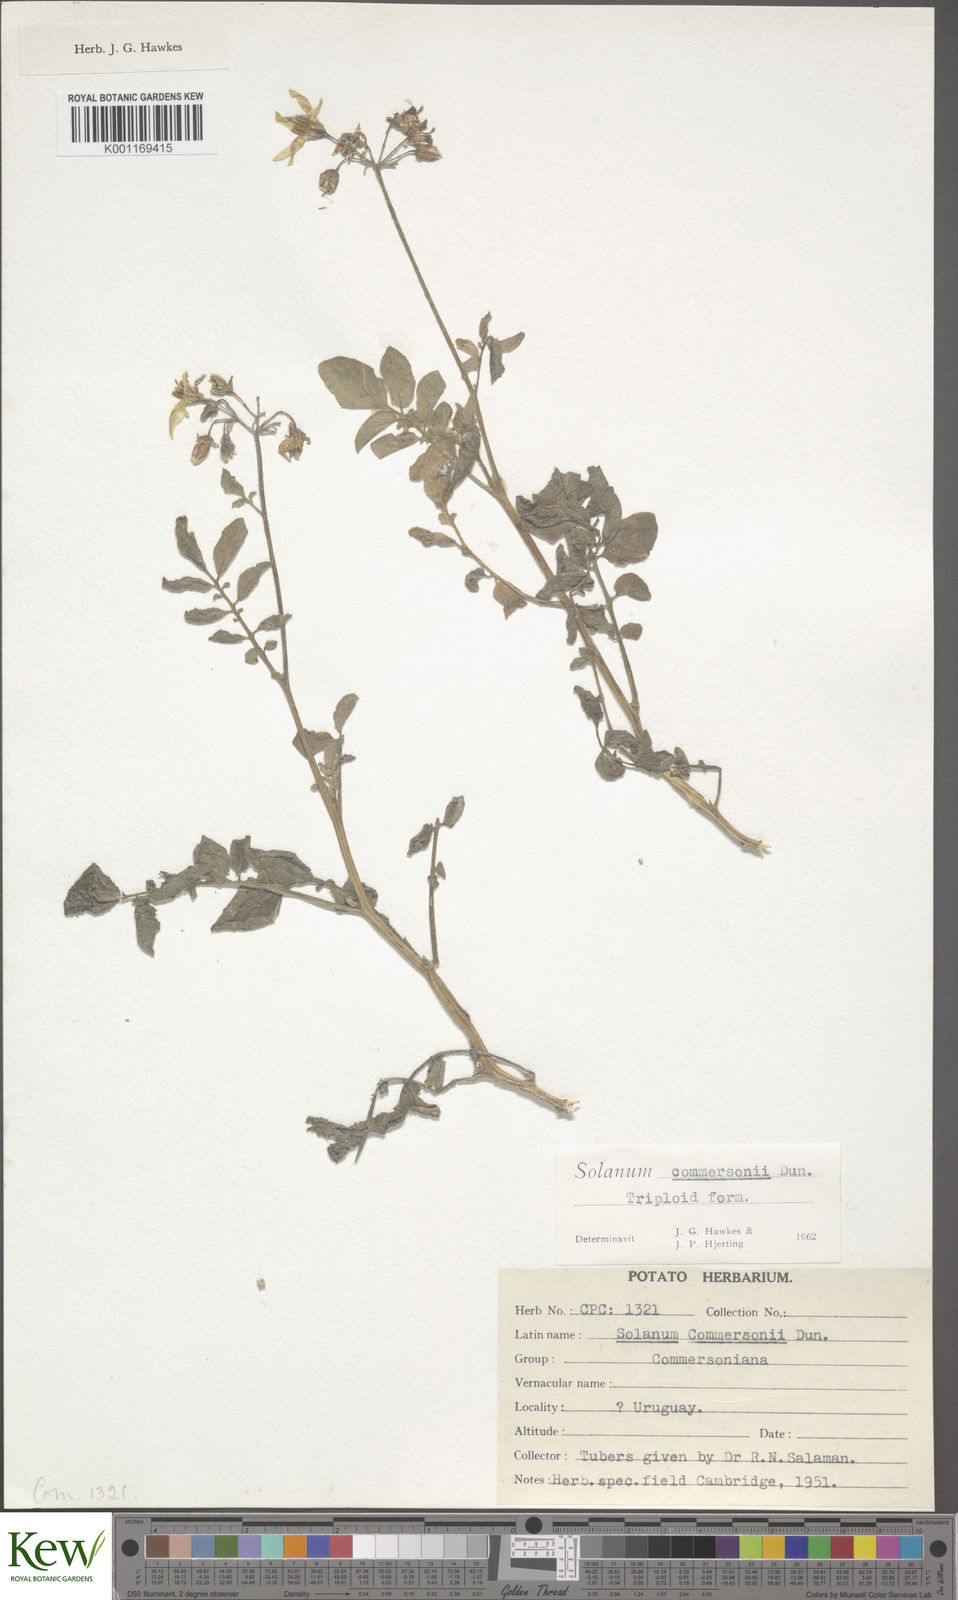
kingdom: Plantae
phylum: Tracheophyta
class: Magnoliopsida
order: Solanales
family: Solanaceae
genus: Solanum
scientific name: Solanum commersonii
